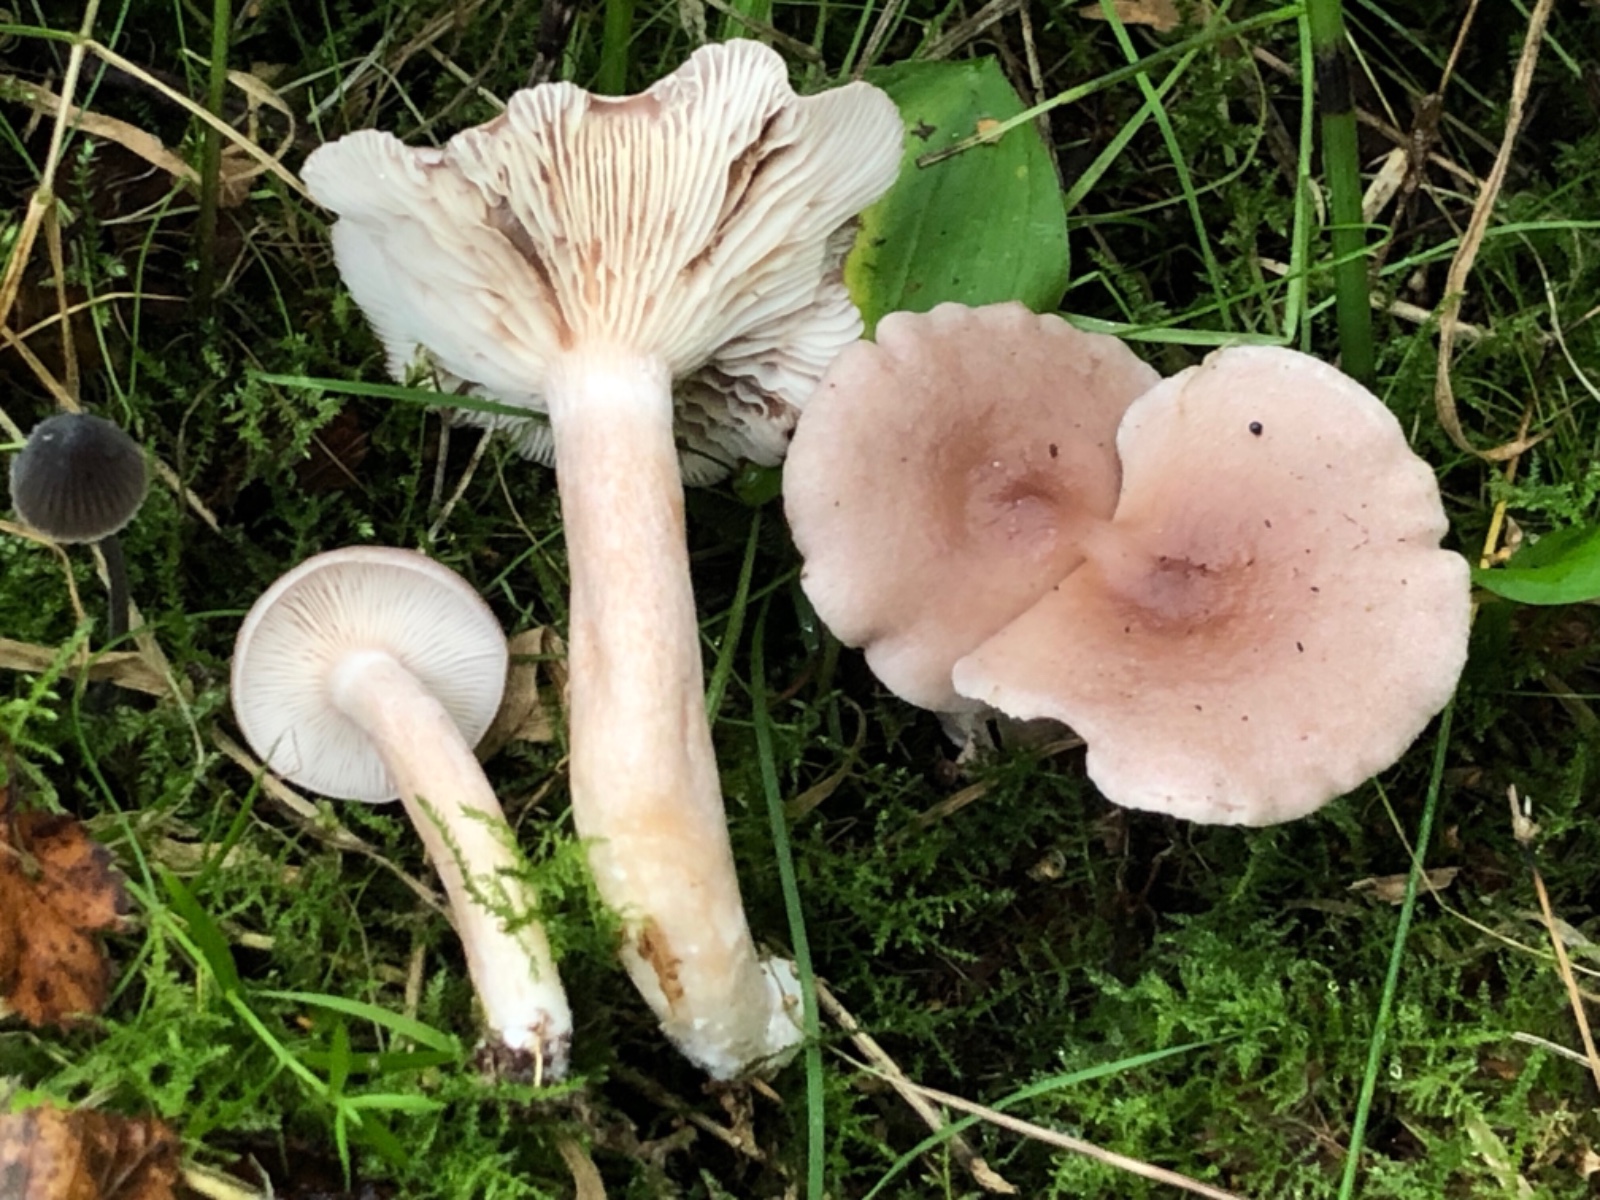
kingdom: Fungi
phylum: Basidiomycota
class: Agaricomycetes
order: Russulales
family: Russulaceae
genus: Lactarius
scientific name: Lactarius glyciosmus
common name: kokos-mælkehat
